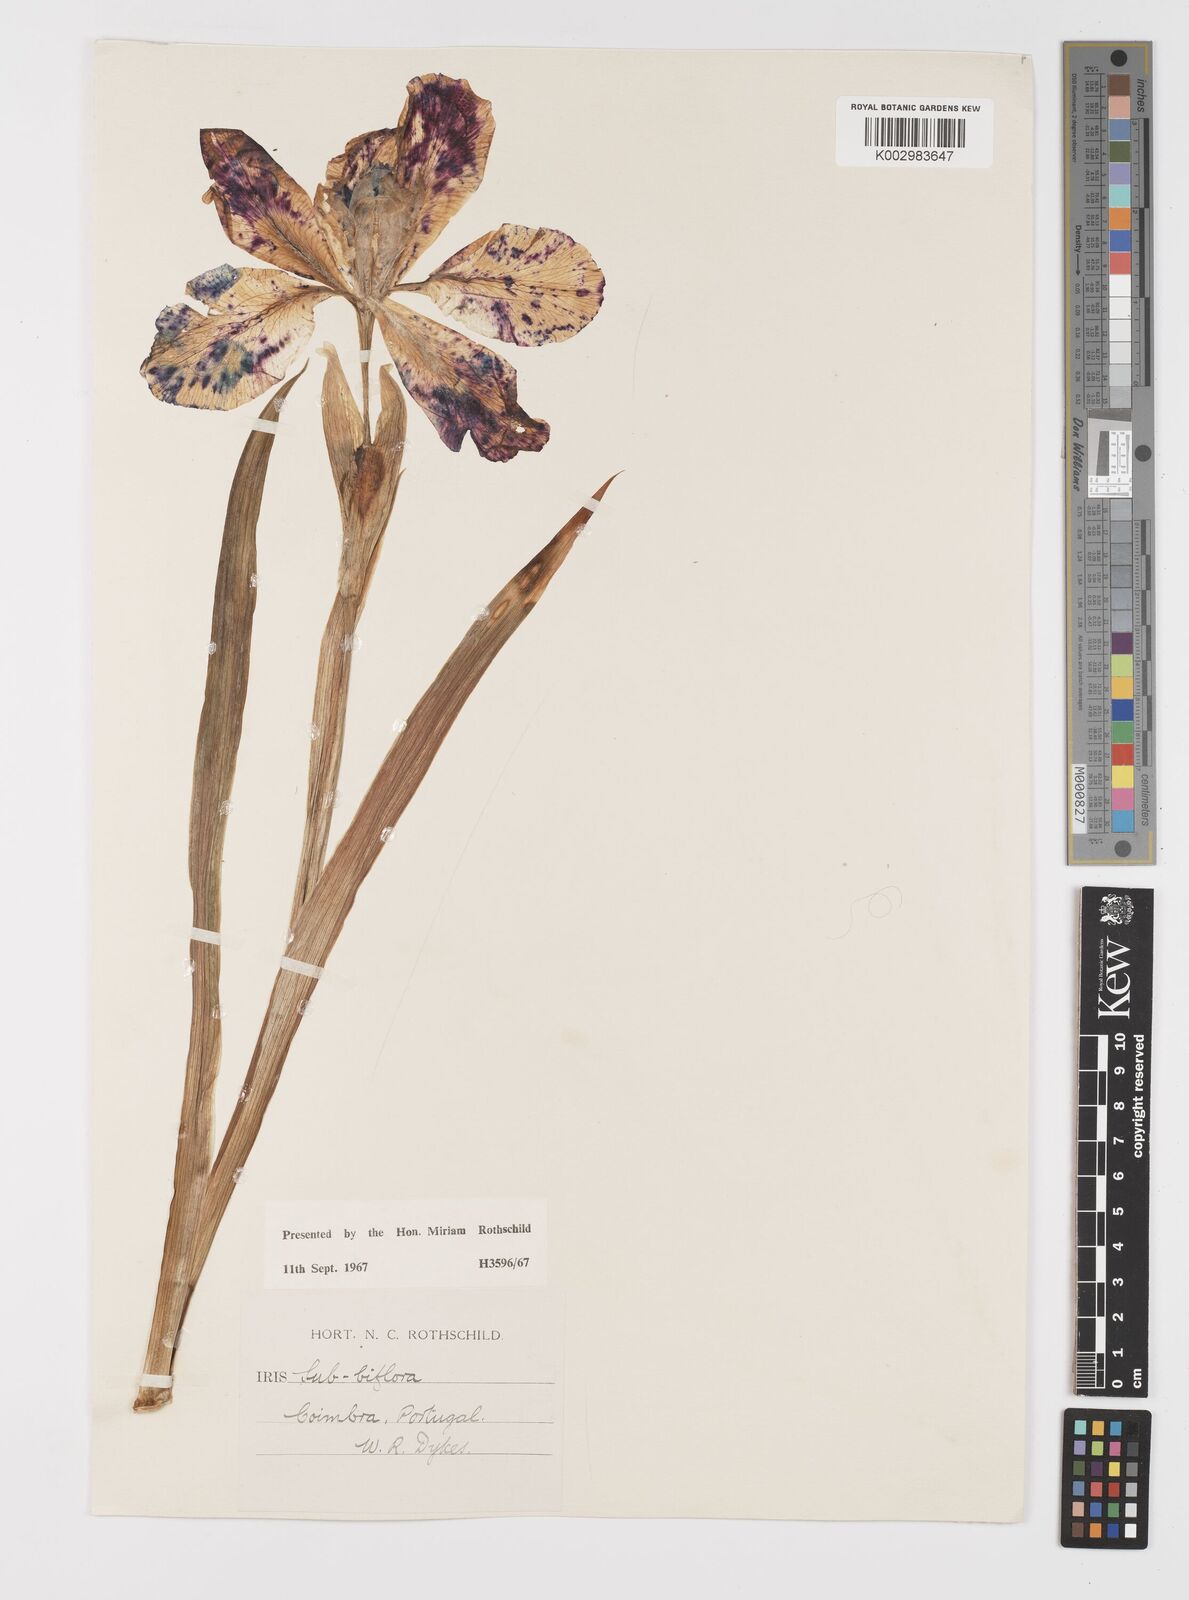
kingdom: Plantae
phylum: Tracheophyta
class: Liliopsida
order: Asparagales
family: Iridaceae
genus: Iris
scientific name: Iris lutescens
